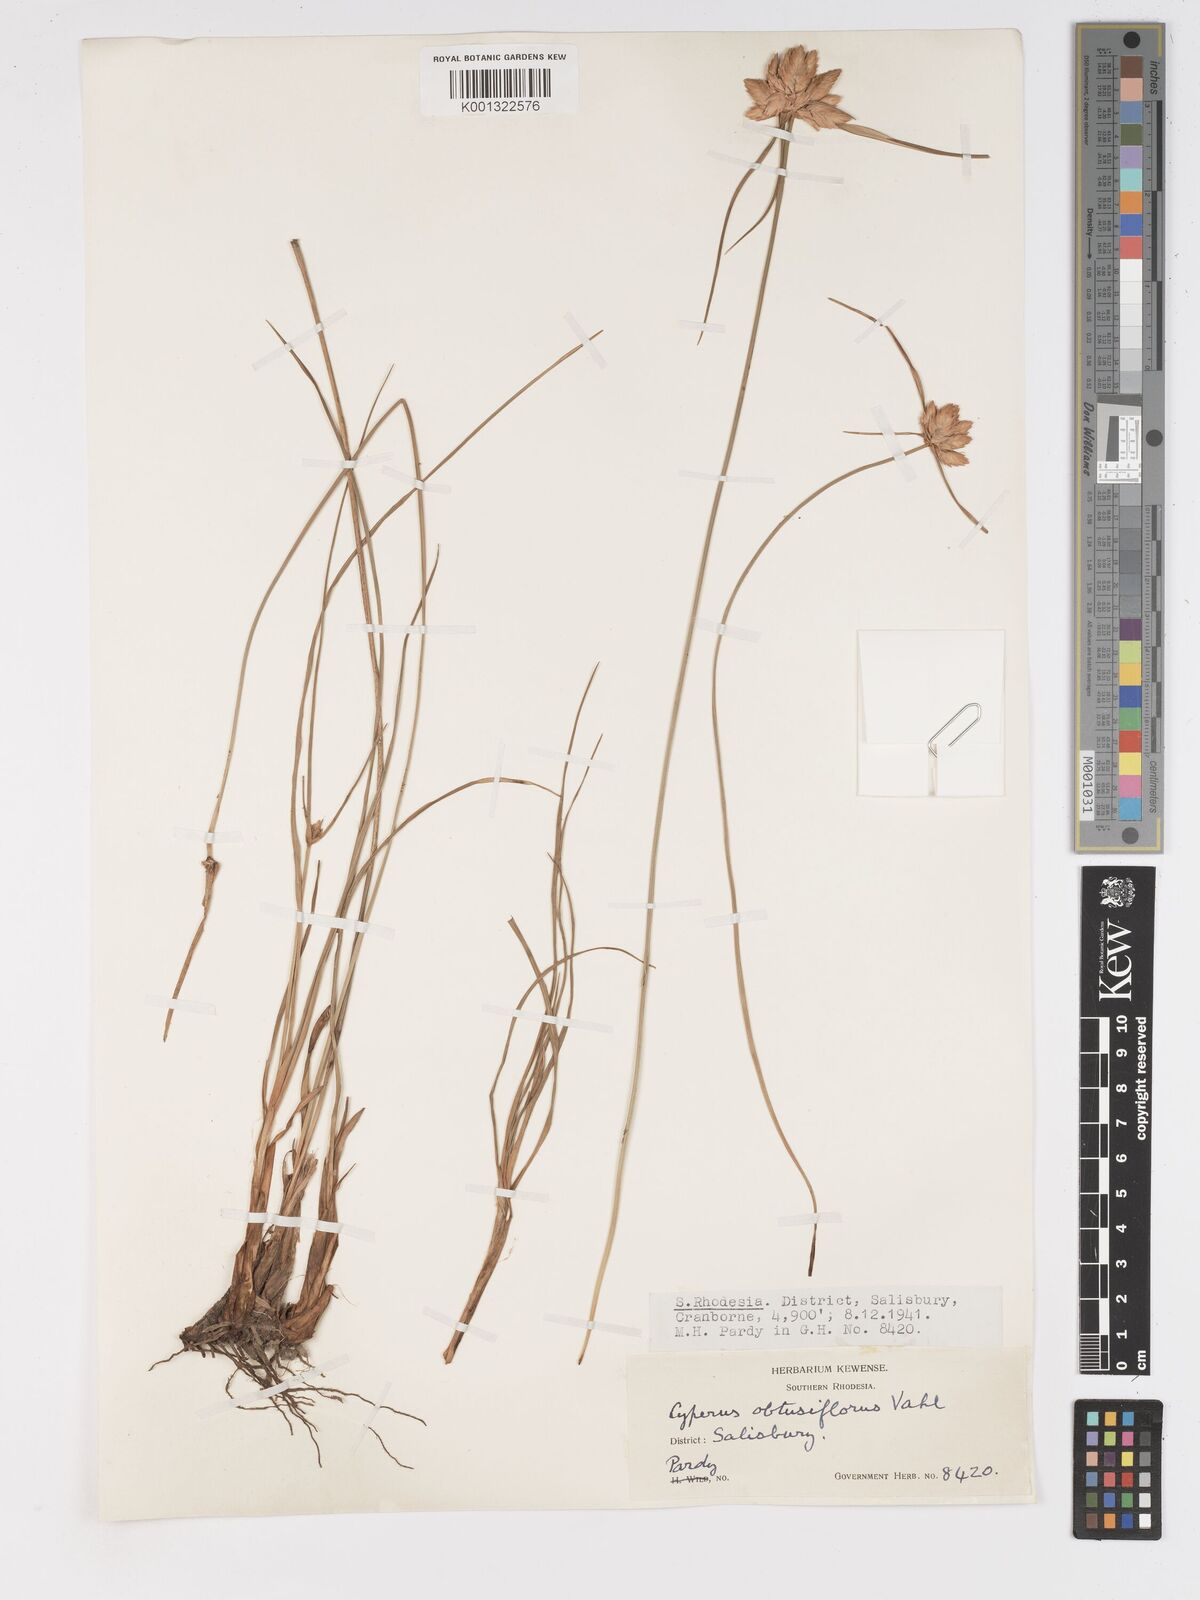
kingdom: Plantae
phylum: Tracheophyta
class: Liliopsida
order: Poales
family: Cyperaceae
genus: Cyperus
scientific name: Cyperus niveus
